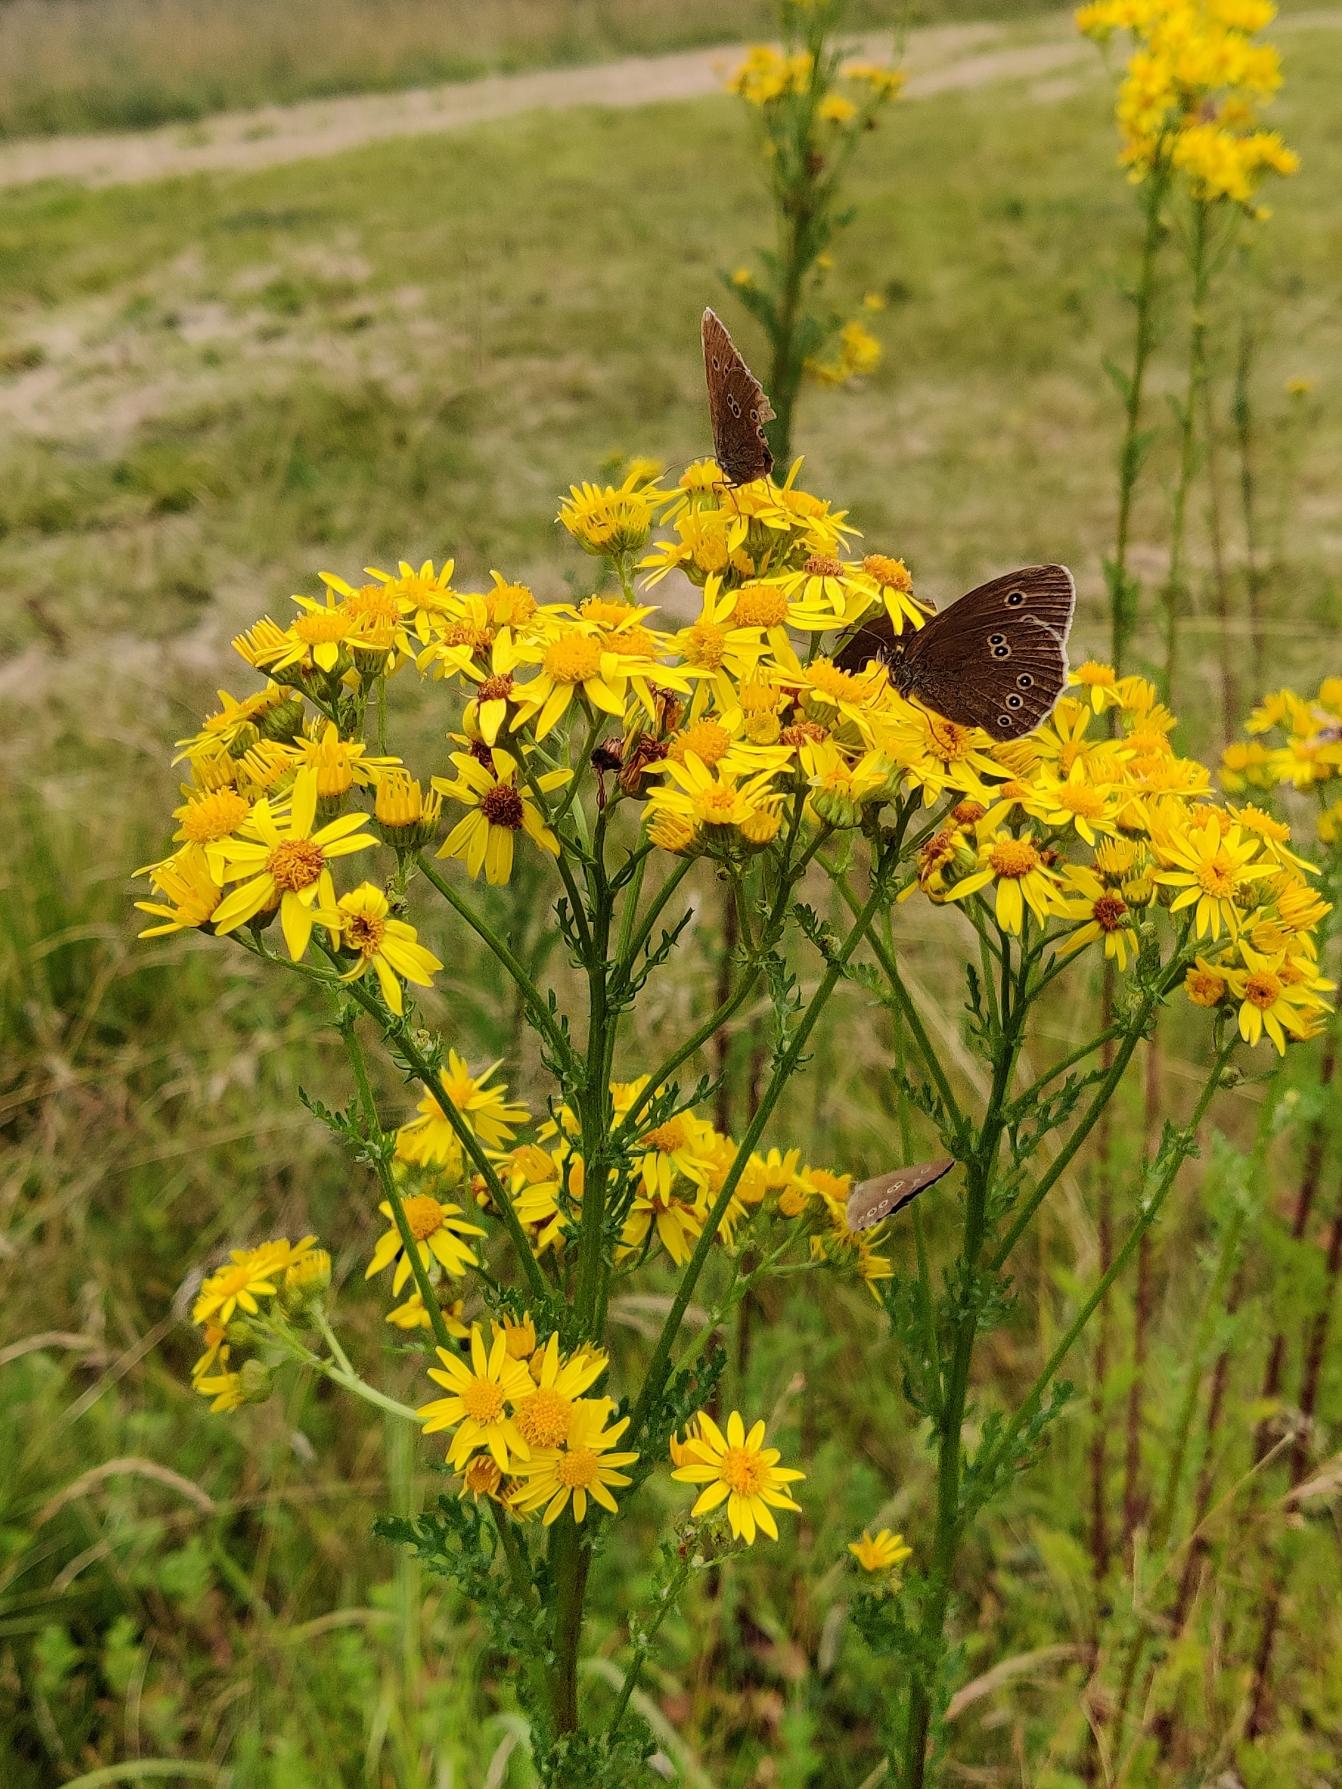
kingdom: Animalia
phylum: Arthropoda
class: Insecta
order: Lepidoptera
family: Nymphalidae
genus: Aphantopus
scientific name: Aphantopus hyperantus
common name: Engrandøje
